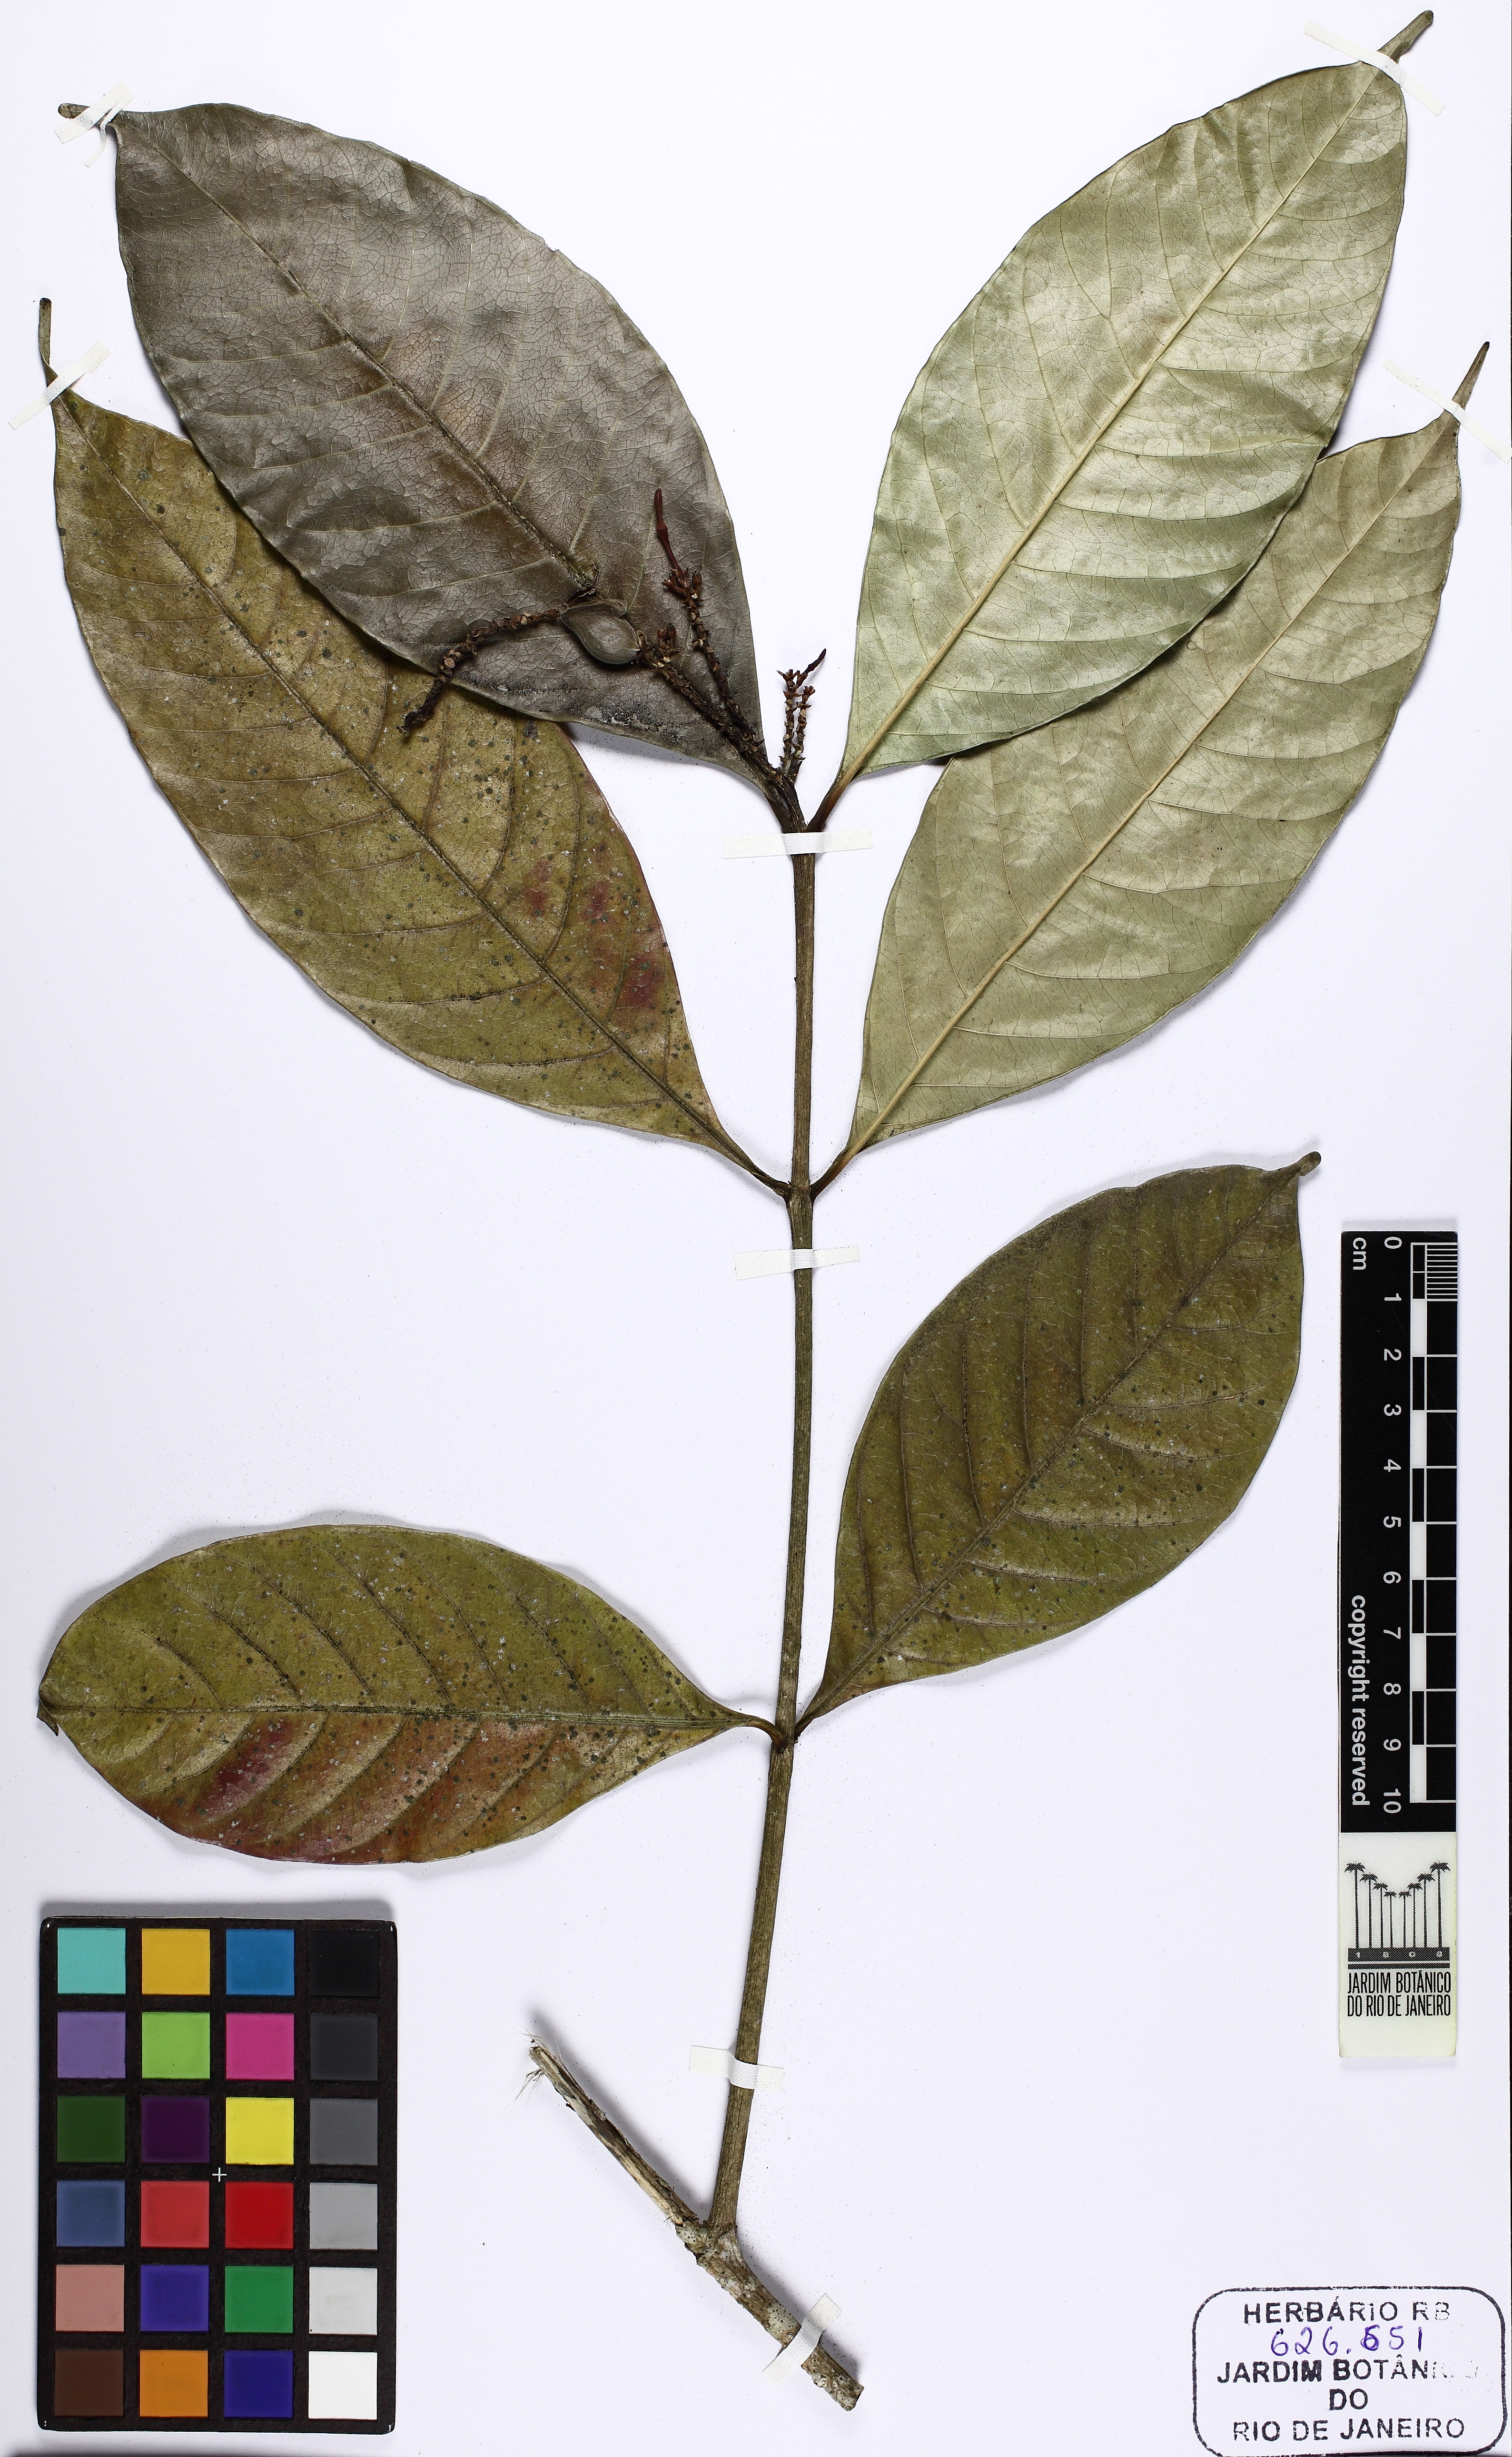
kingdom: Plantae
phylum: Tracheophyta
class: Magnoliopsida
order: Gentianales
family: Apocynaceae
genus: Kopsia
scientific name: Kopsia fruticosa
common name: Shrub-vinca
